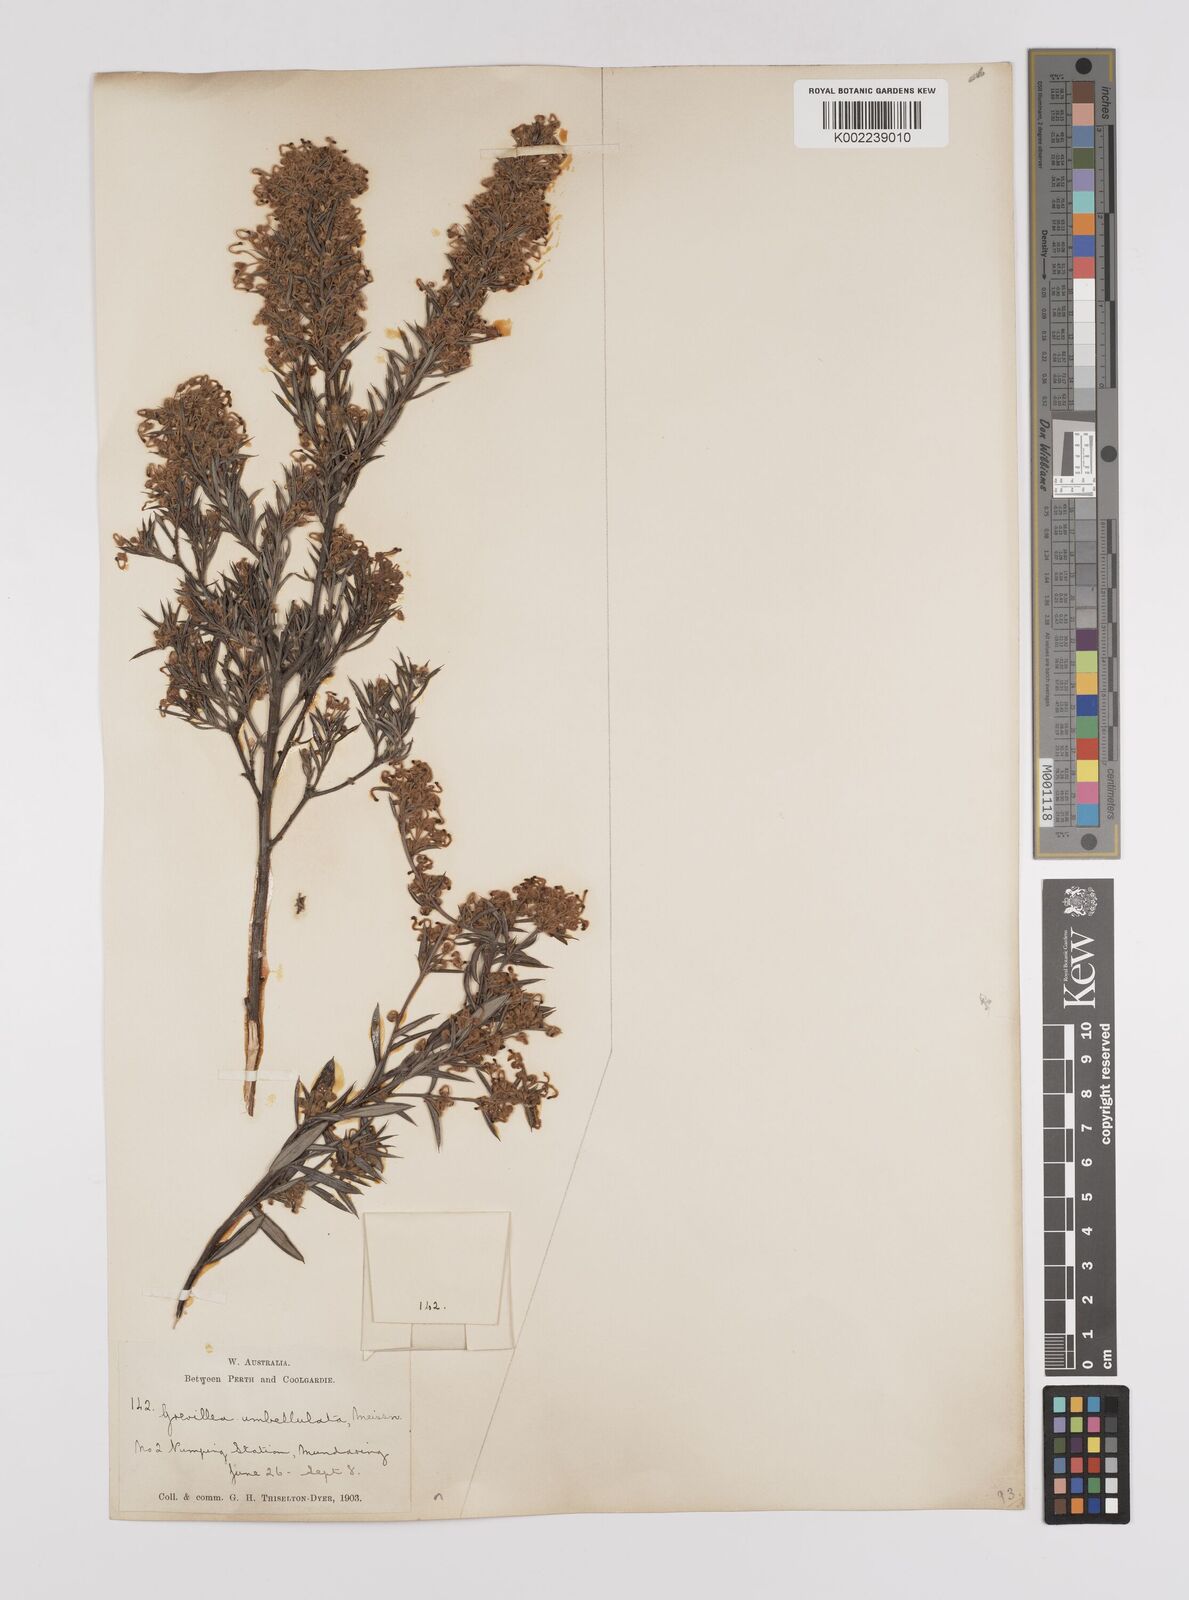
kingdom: Plantae
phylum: Tracheophyta
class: Magnoliopsida
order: Proteales
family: Proteaceae
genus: Grevillea
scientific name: Grevillea pilulifera
